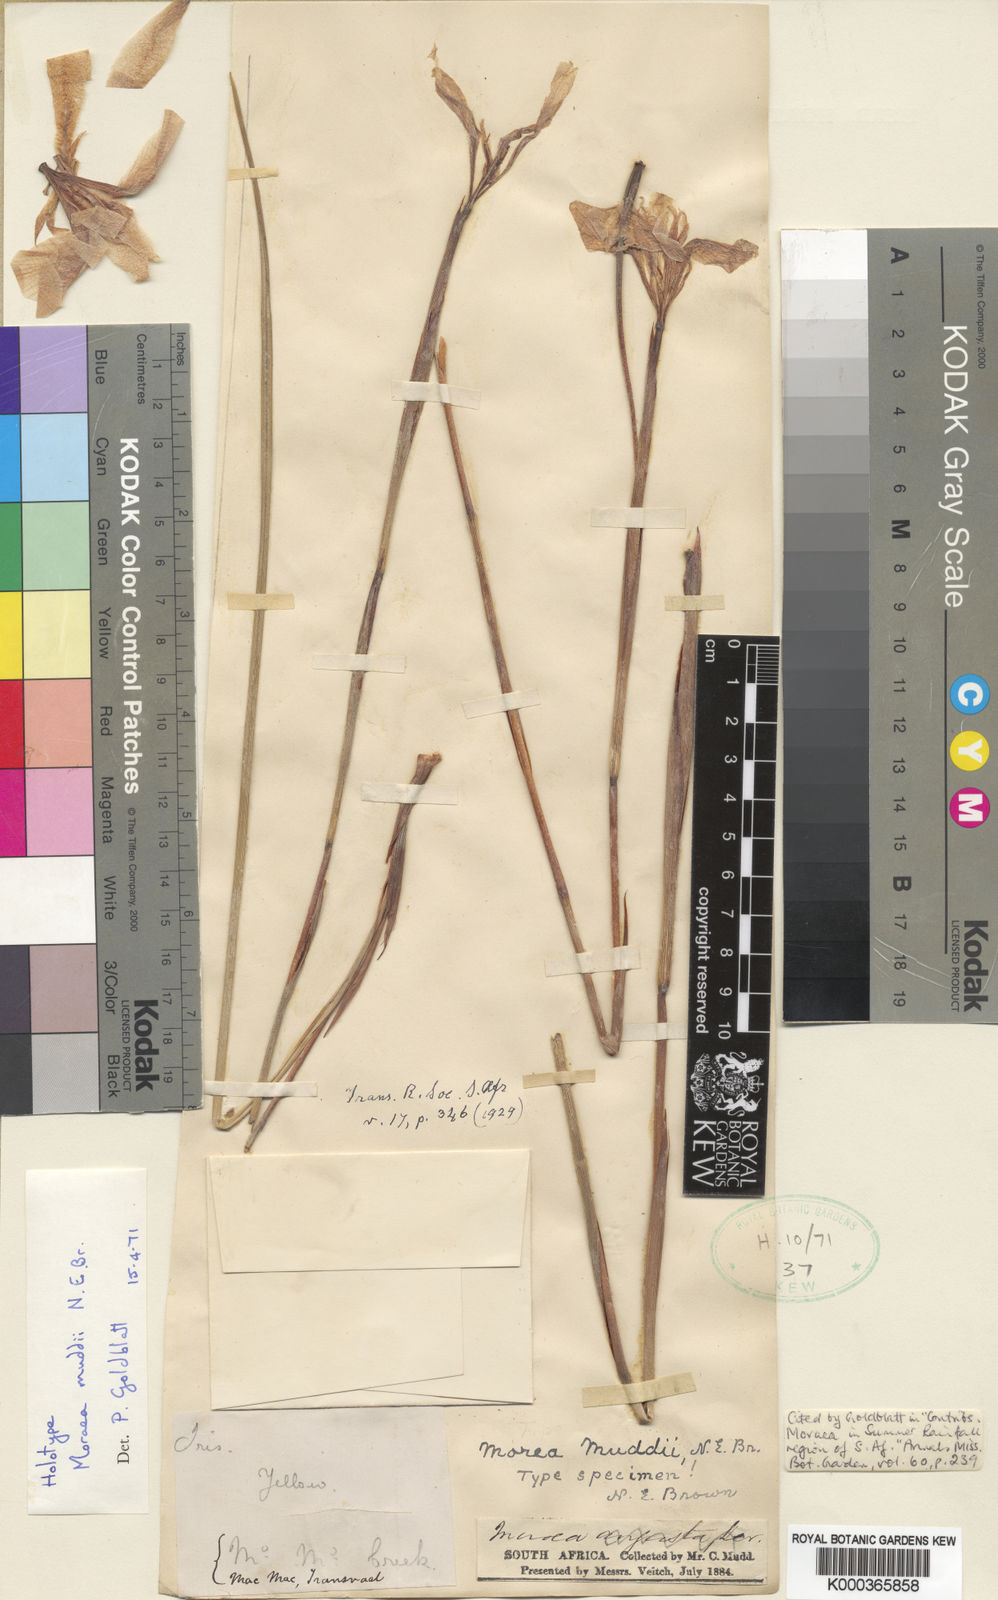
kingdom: Plantae
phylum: Tracheophyta
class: Liliopsida
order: Asparagales
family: Iridaceae
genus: Moraea
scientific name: Moraea muddii
